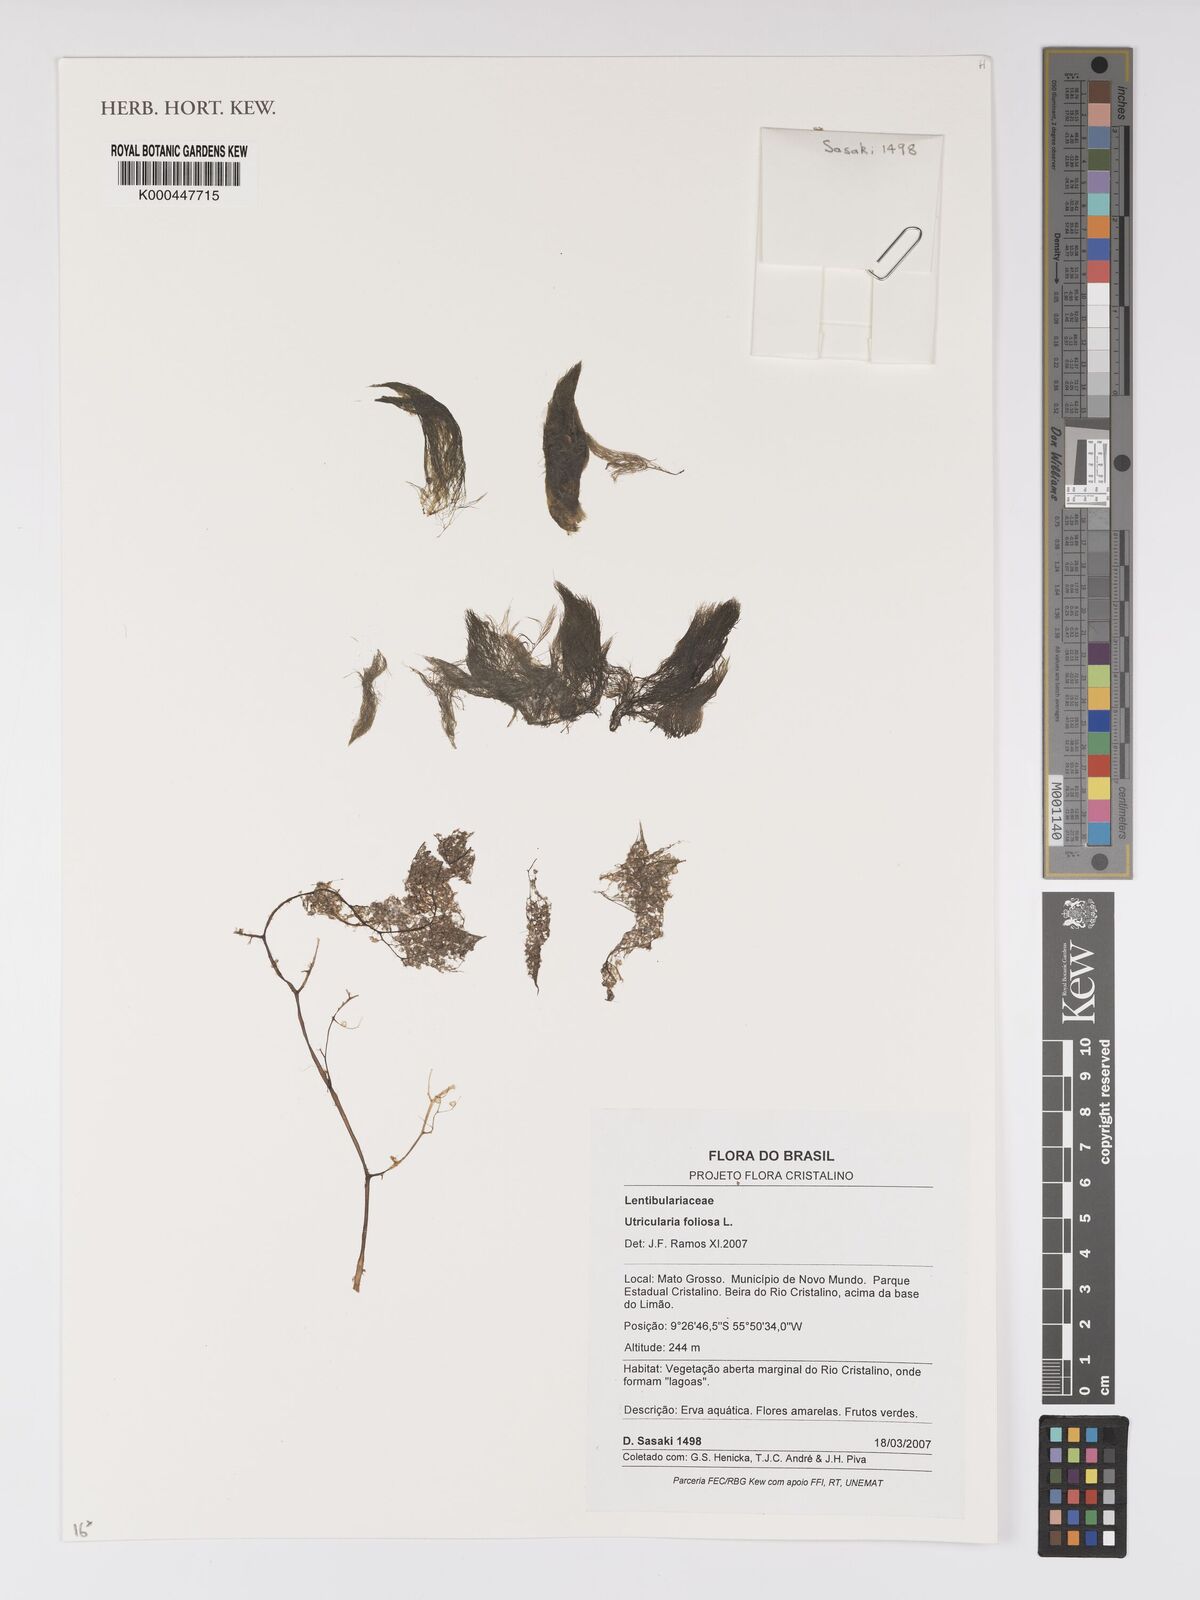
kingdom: Plantae
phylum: Tracheophyta
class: Magnoliopsida
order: Lamiales
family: Lentibulariaceae
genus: Utricularia
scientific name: Utricularia foliosa
